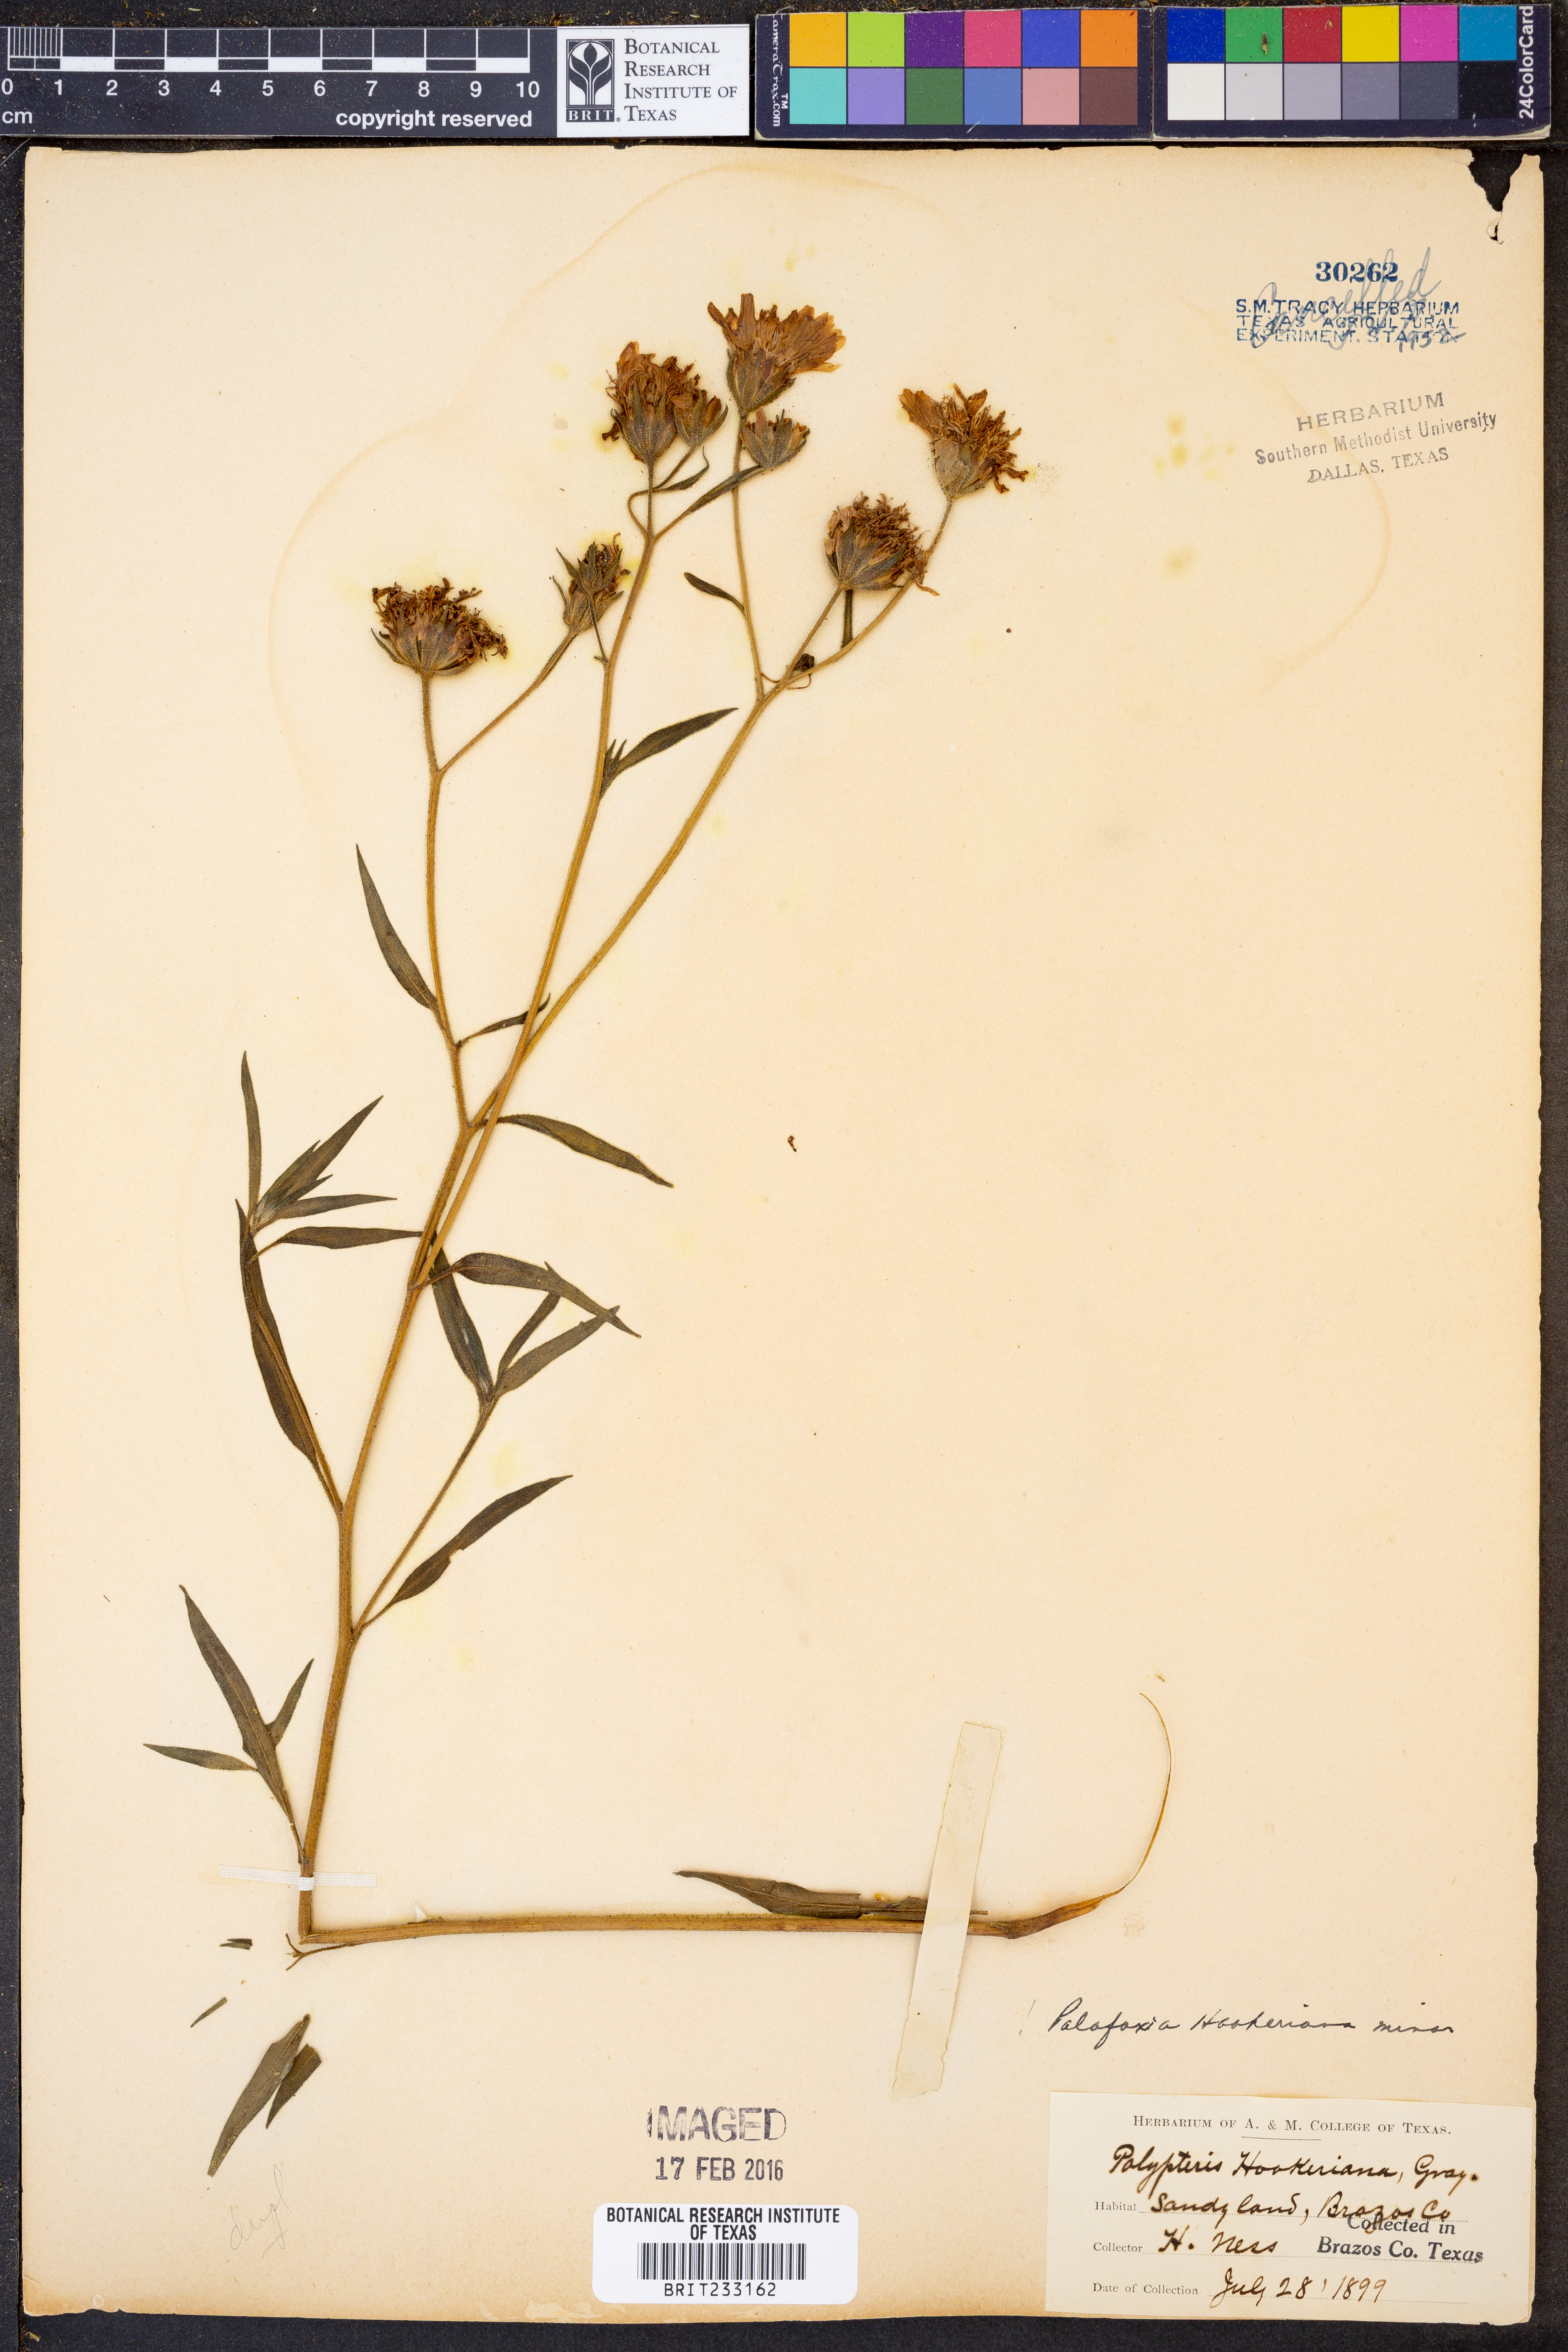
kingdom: Plantae
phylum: Tracheophyta
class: Magnoliopsida
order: Asterales
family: Asteraceae
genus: Palafoxia
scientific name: Palafoxia hookeriana
